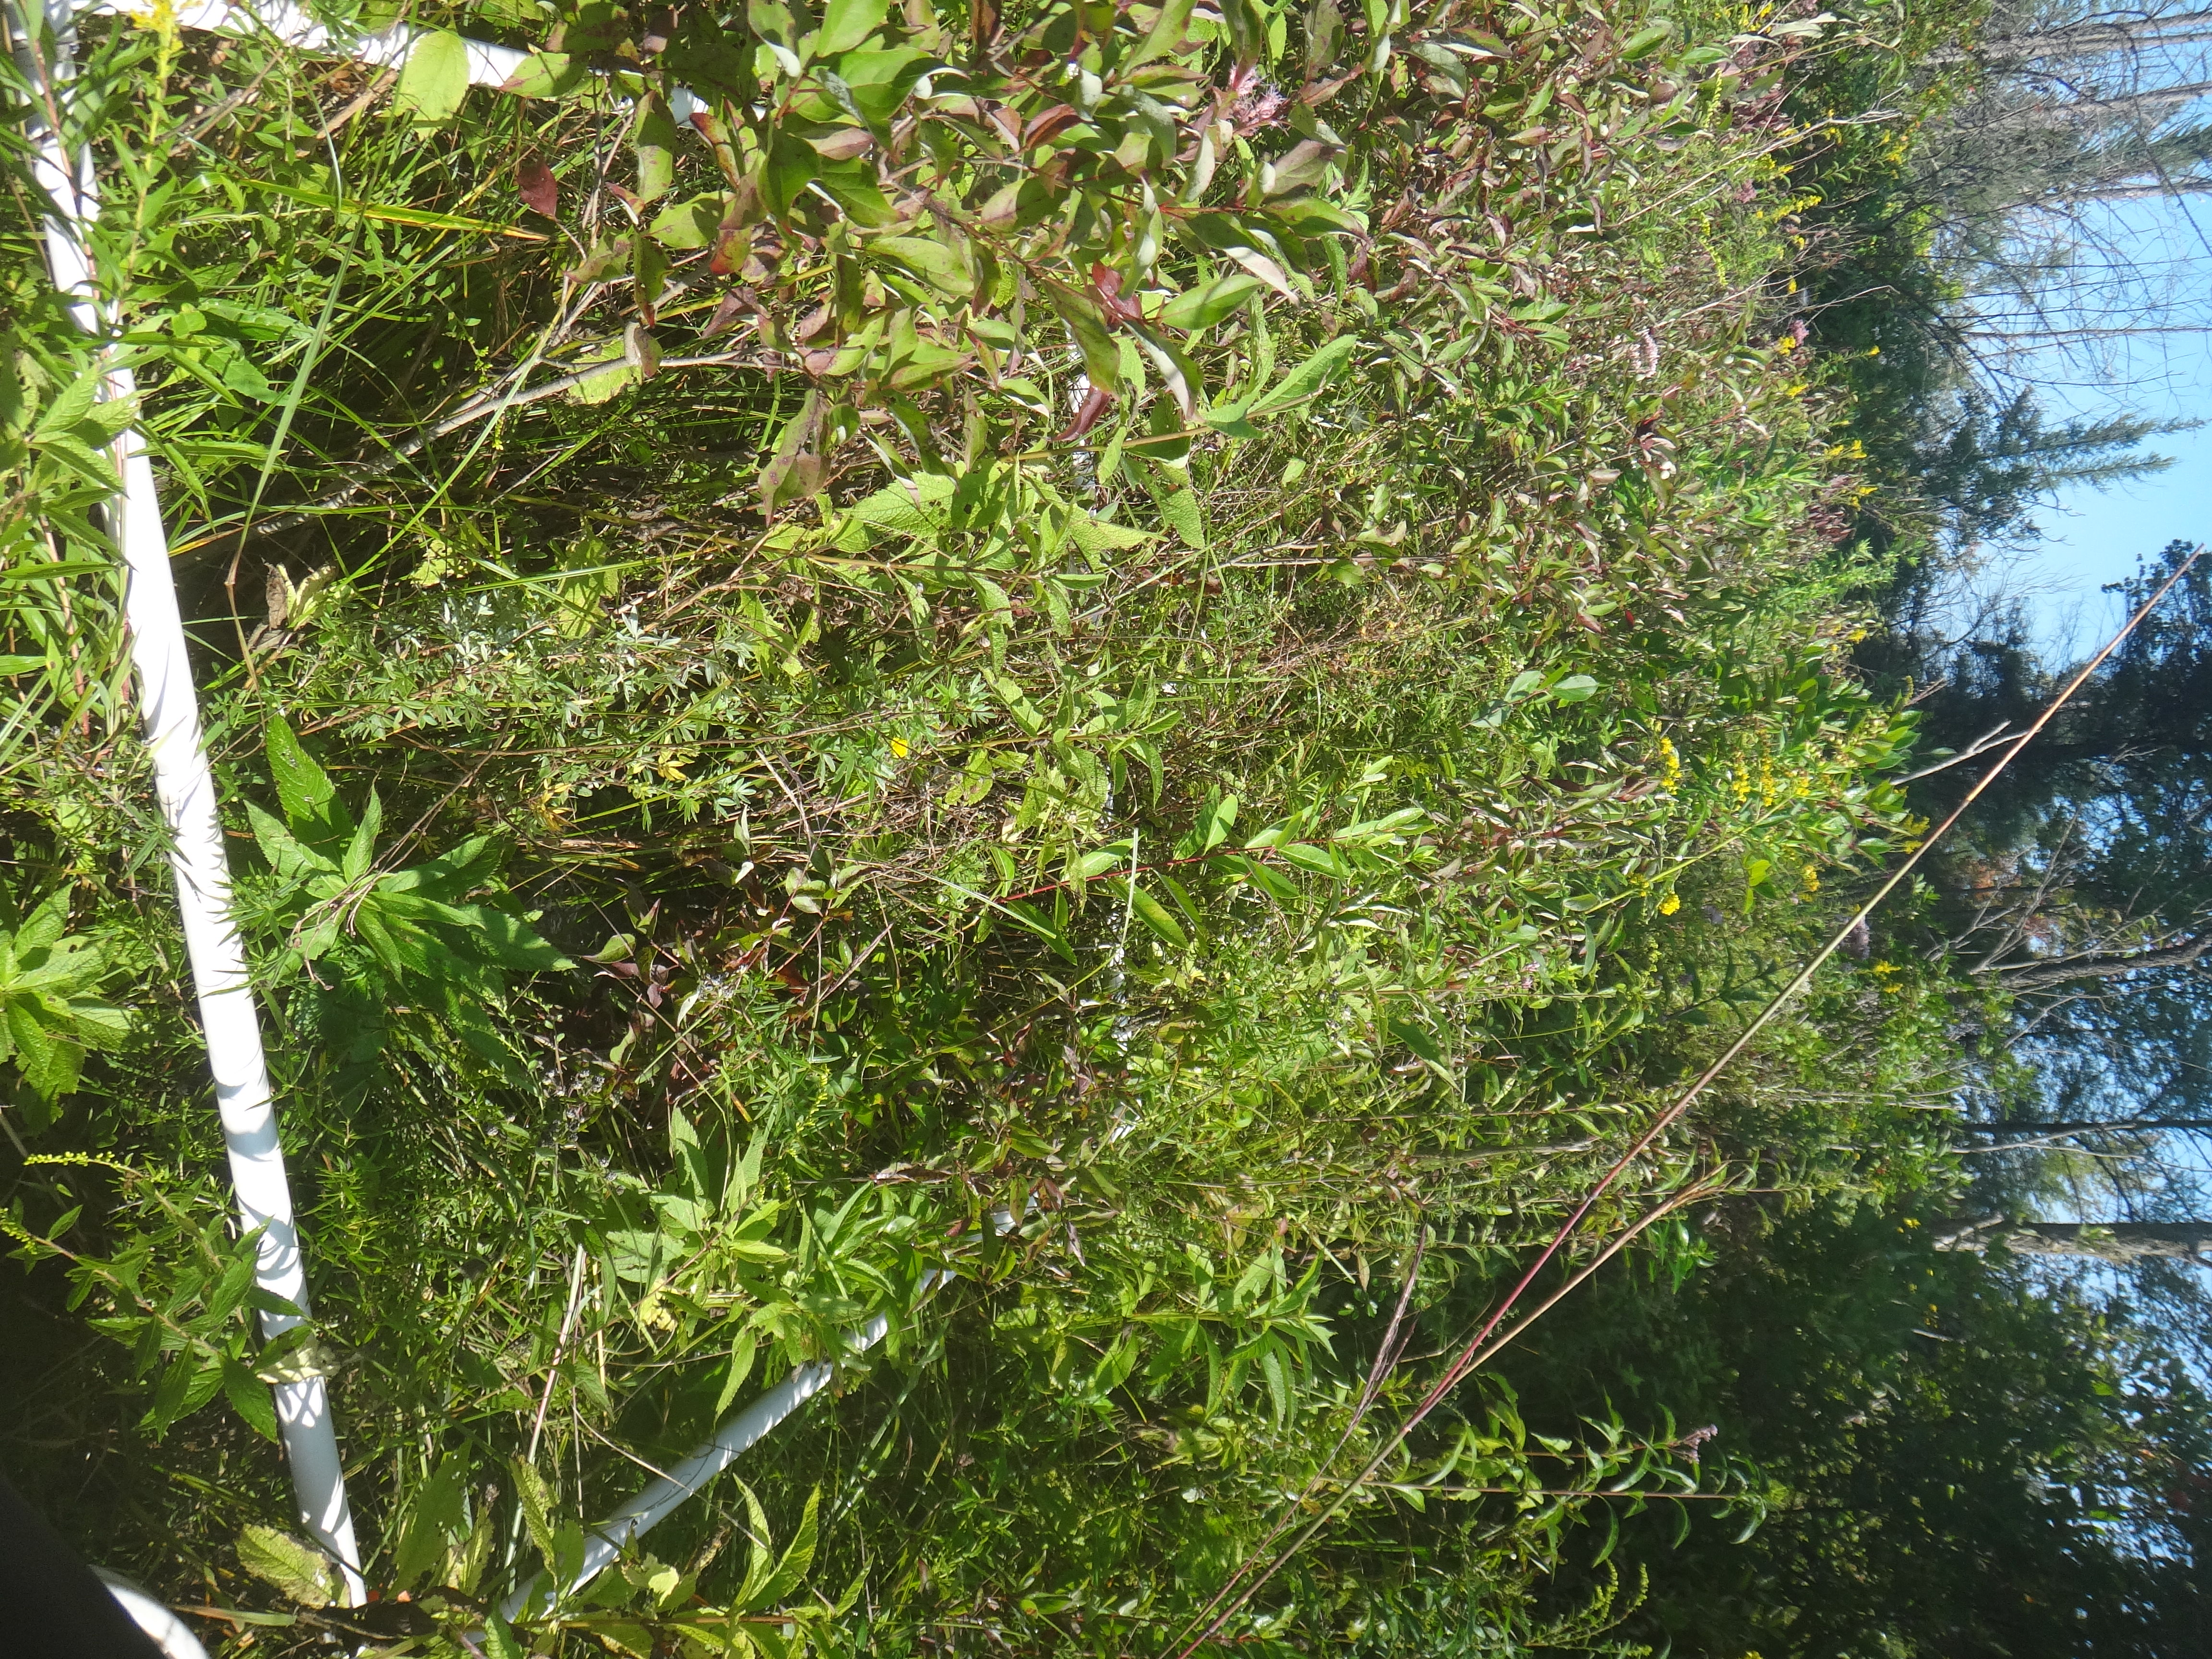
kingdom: Plantae
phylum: Tracheophyta
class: Magnoliopsida
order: Ranunculales
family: Ranunculaceae
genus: Thalictrum
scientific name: Thalictrum dasycarpum
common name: Purple meadow-rue
